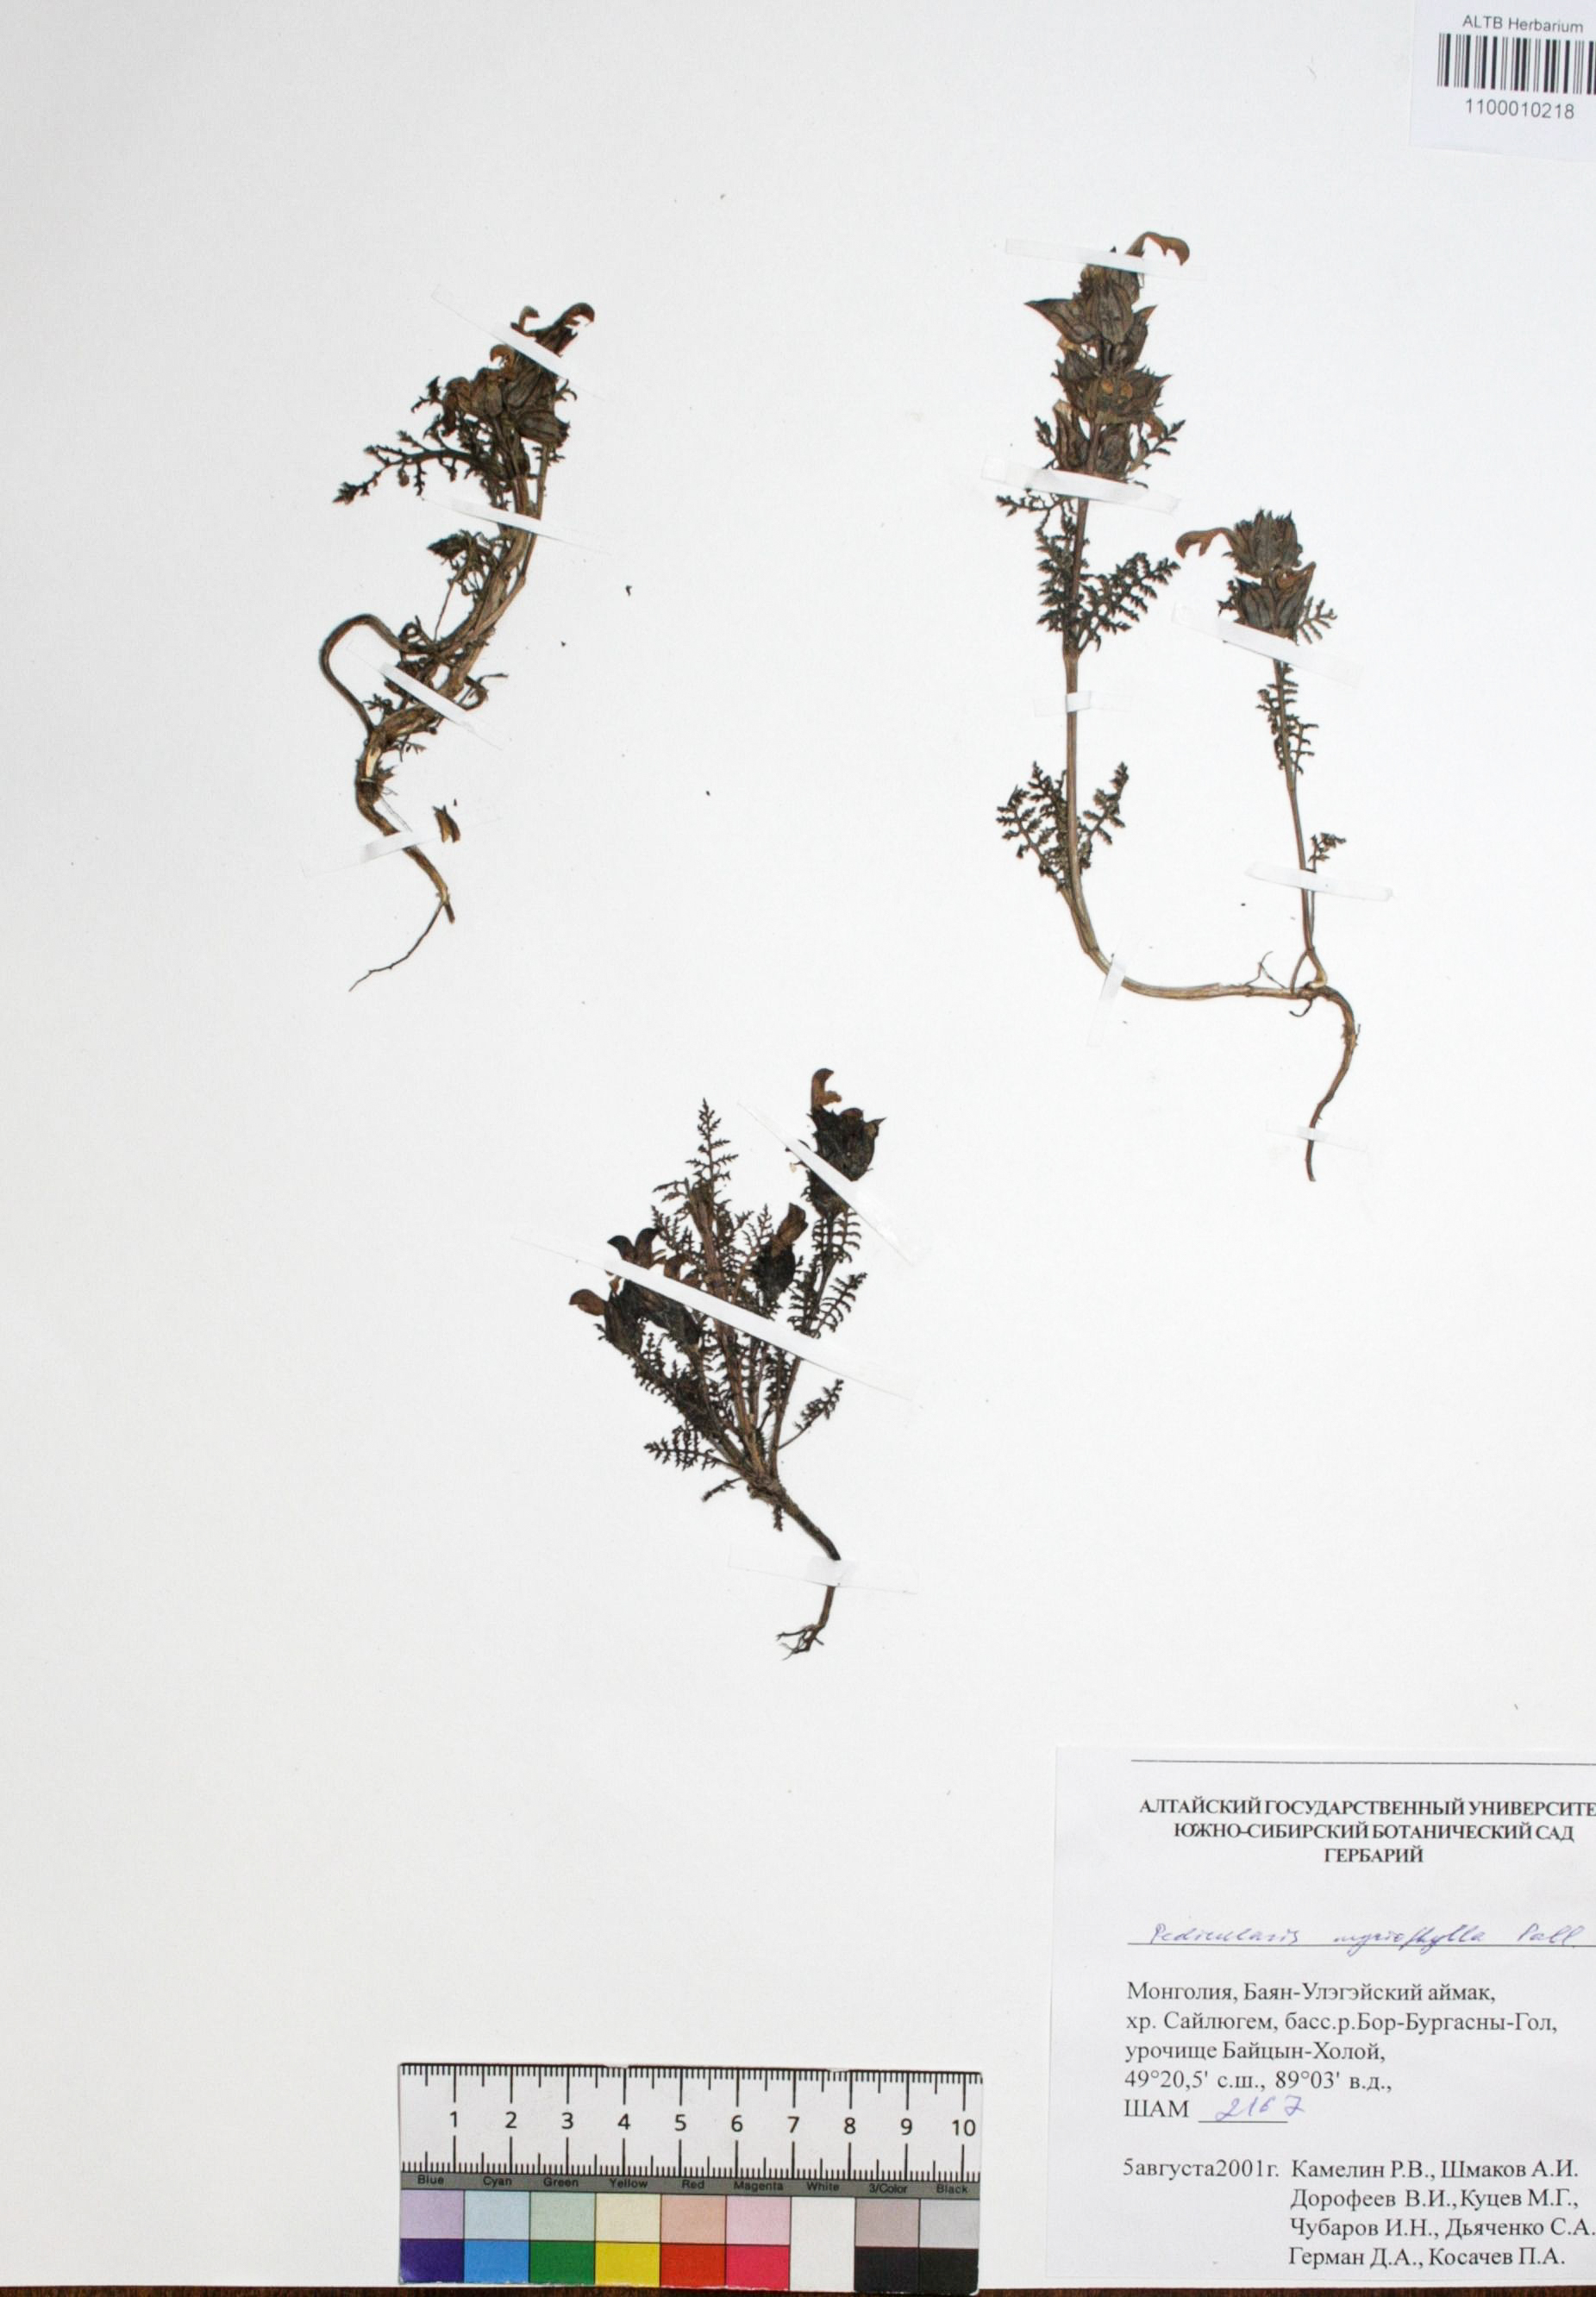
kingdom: Plantae
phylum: Tracheophyta
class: Magnoliopsida
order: Lamiales
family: Orobanchaceae
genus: Pedicularis
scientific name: Pedicularis myriophylla
